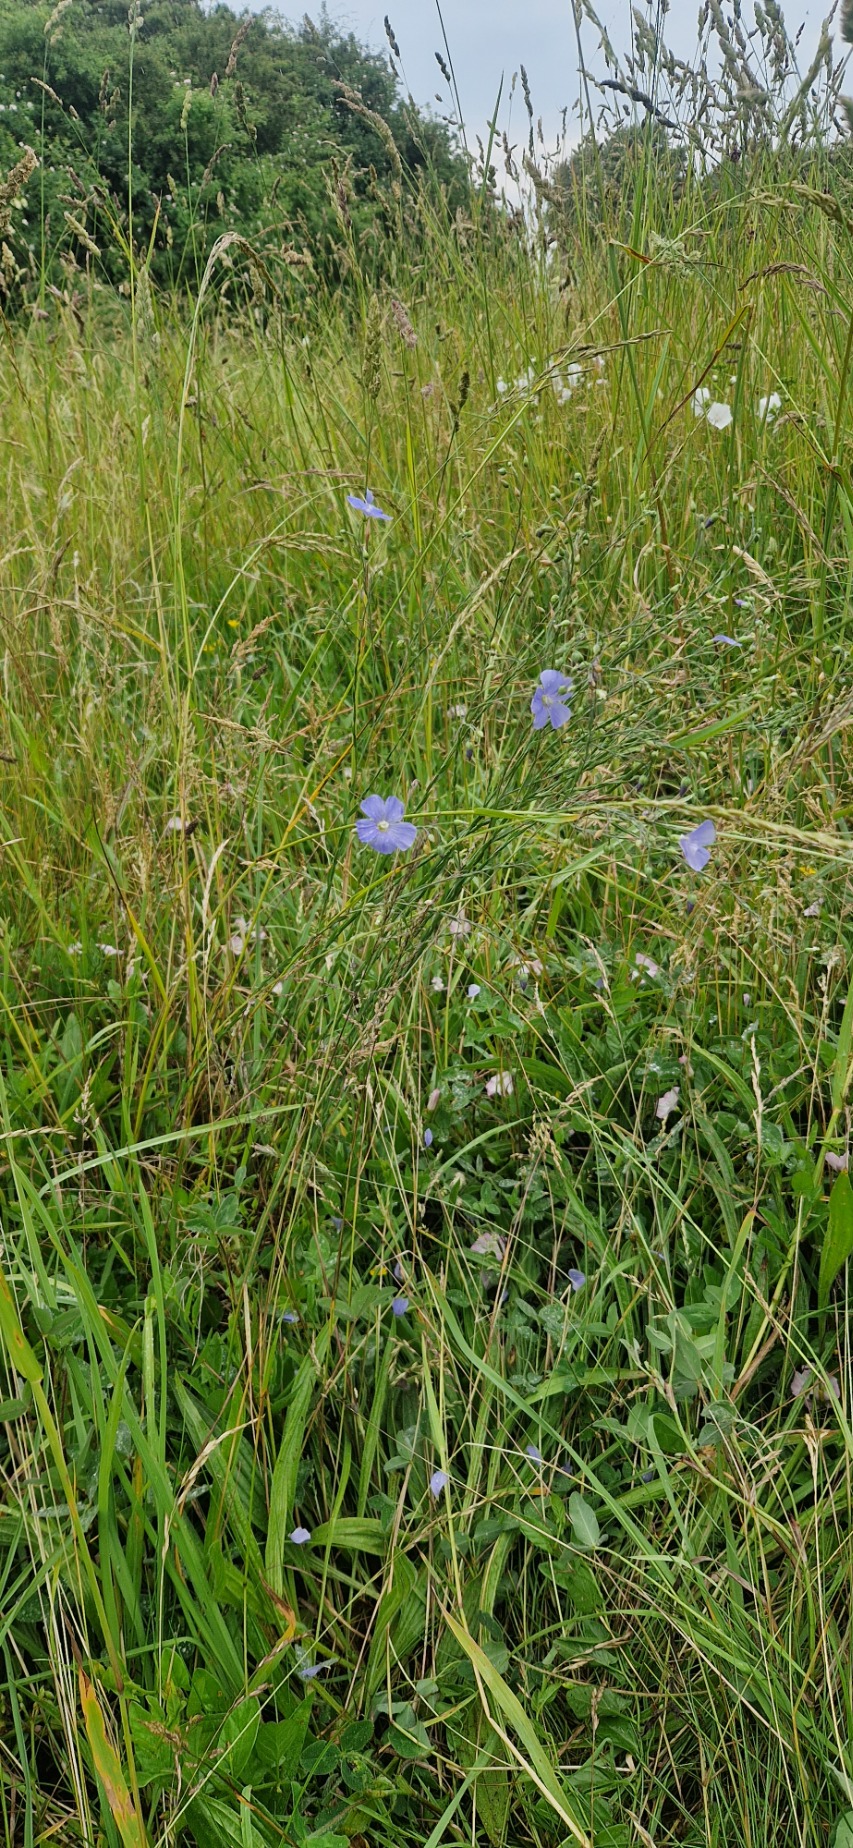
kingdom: Plantae
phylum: Tracheophyta
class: Magnoliopsida
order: Malpighiales
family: Linaceae
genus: Linum
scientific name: Linum austriacum
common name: Østrigsk hør
